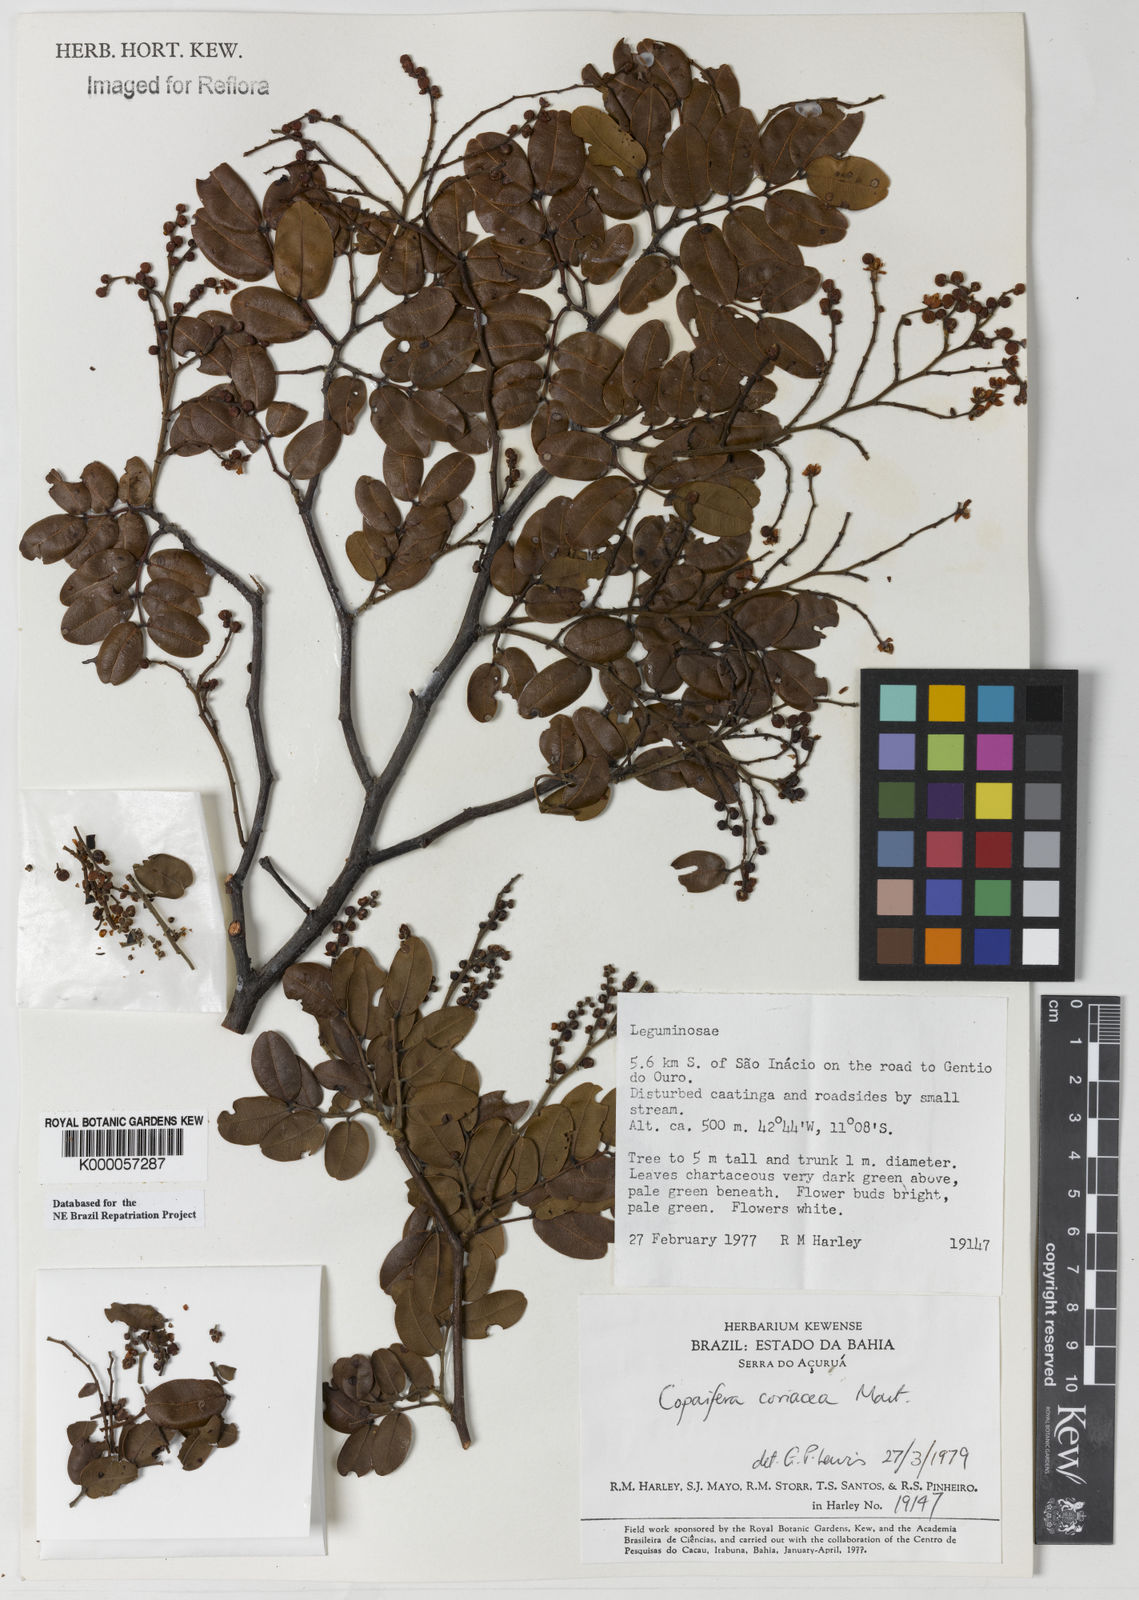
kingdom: Plantae
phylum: Tracheophyta
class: Magnoliopsida
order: Fabales
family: Fabaceae
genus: Copaifera
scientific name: Copaifera coriacea
